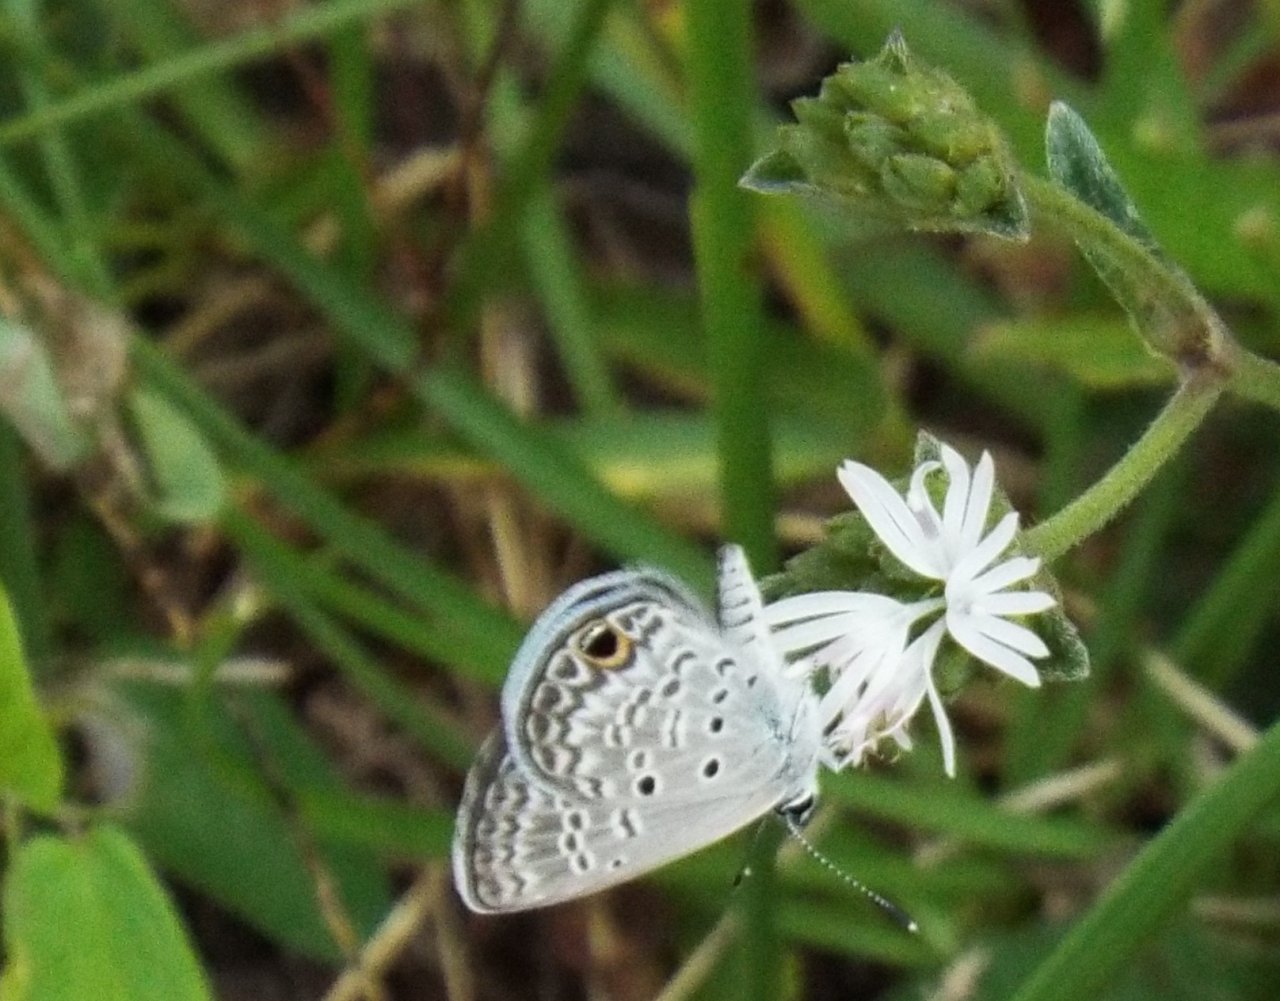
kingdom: Animalia
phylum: Arthropoda
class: Insecta
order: Lepidoptera
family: Lycaenidae
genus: Hemiargus
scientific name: Hemiargus ceraunus
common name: Ceraunus Blue
